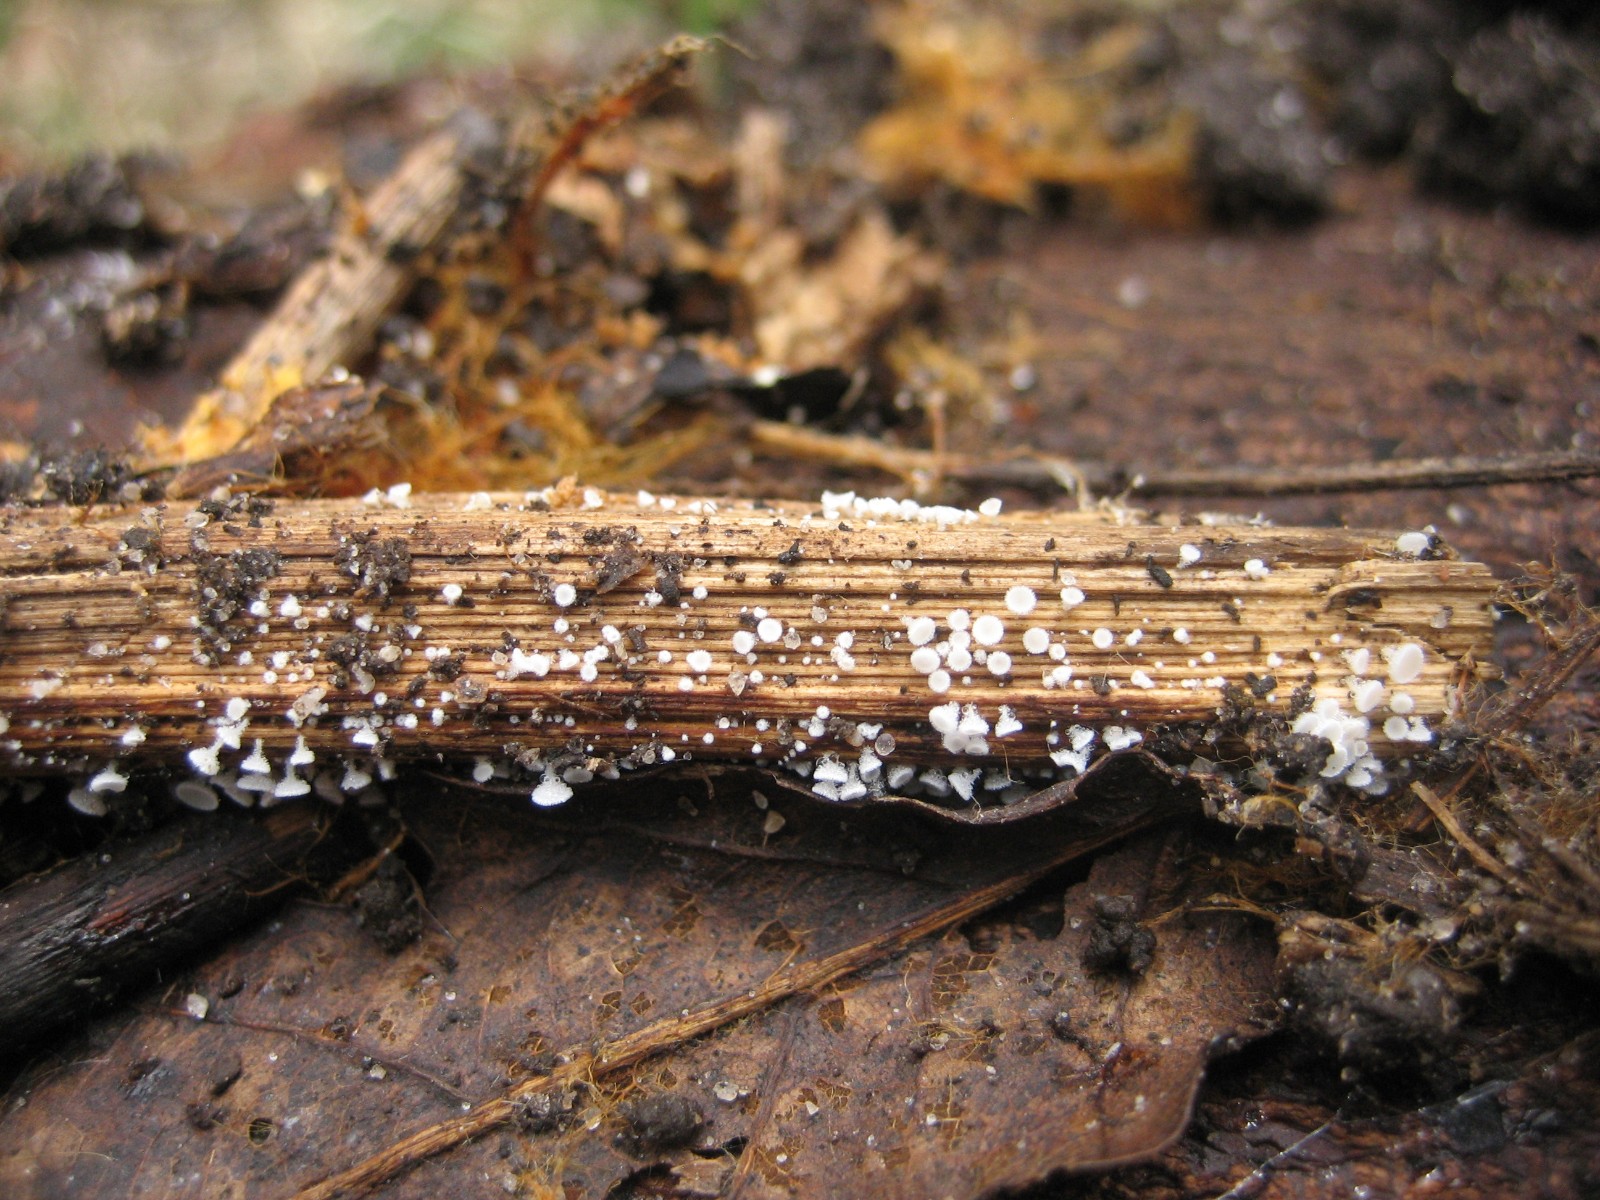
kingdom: Fungi
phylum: Ascomycota
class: Leotiomycetes
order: Helotiales
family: Lachnaceae
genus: Lachnum
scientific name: Lachnum
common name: frynseskive
